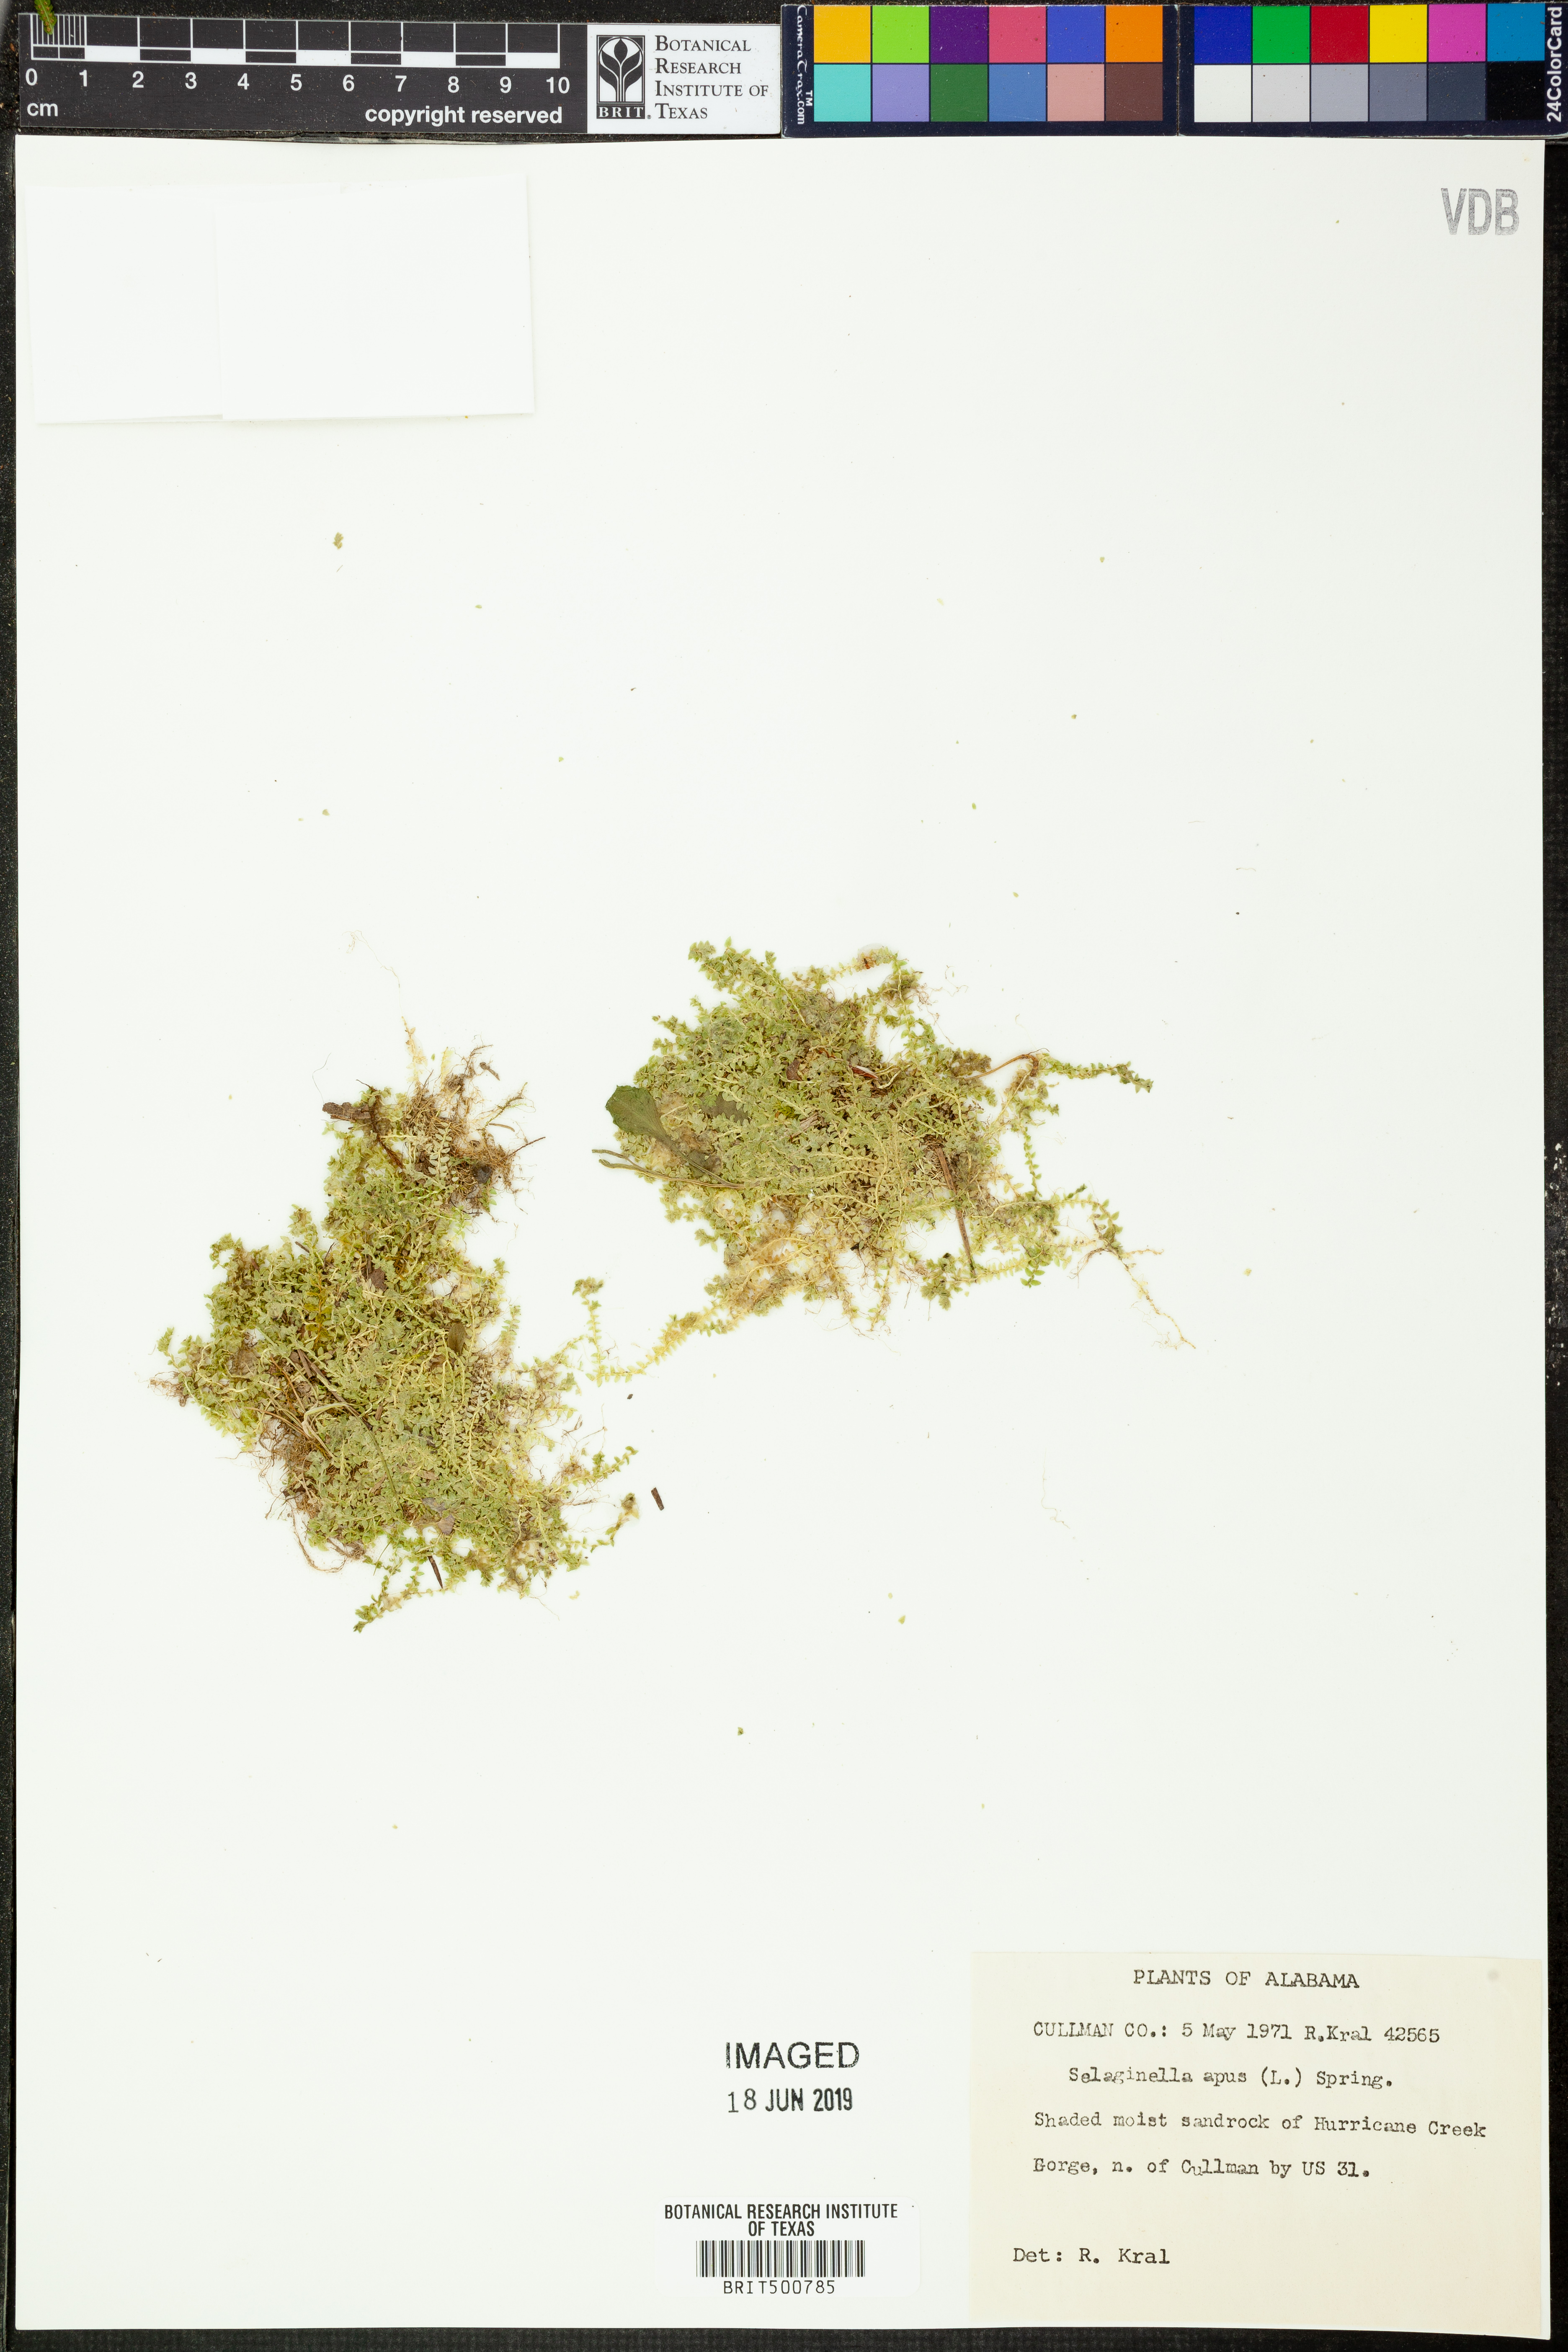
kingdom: Plantae
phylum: Tracheophyta
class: Lycopodiopsida
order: Selaginellales
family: Selaginellaceae
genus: Selaginella
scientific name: Selaginella apoda
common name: Creeping spikemoss
